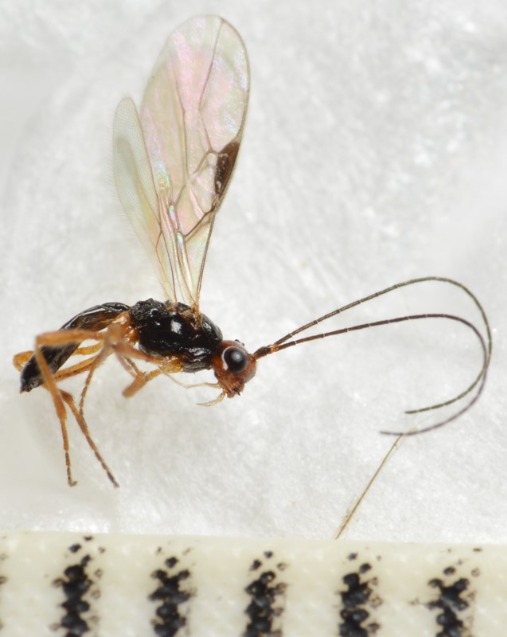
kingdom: Animalia
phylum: Arthropoda
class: Insecta
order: Hymenoptera
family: Braconidae
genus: Phaenocarpa
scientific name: Phaenocarpa subruficeps
